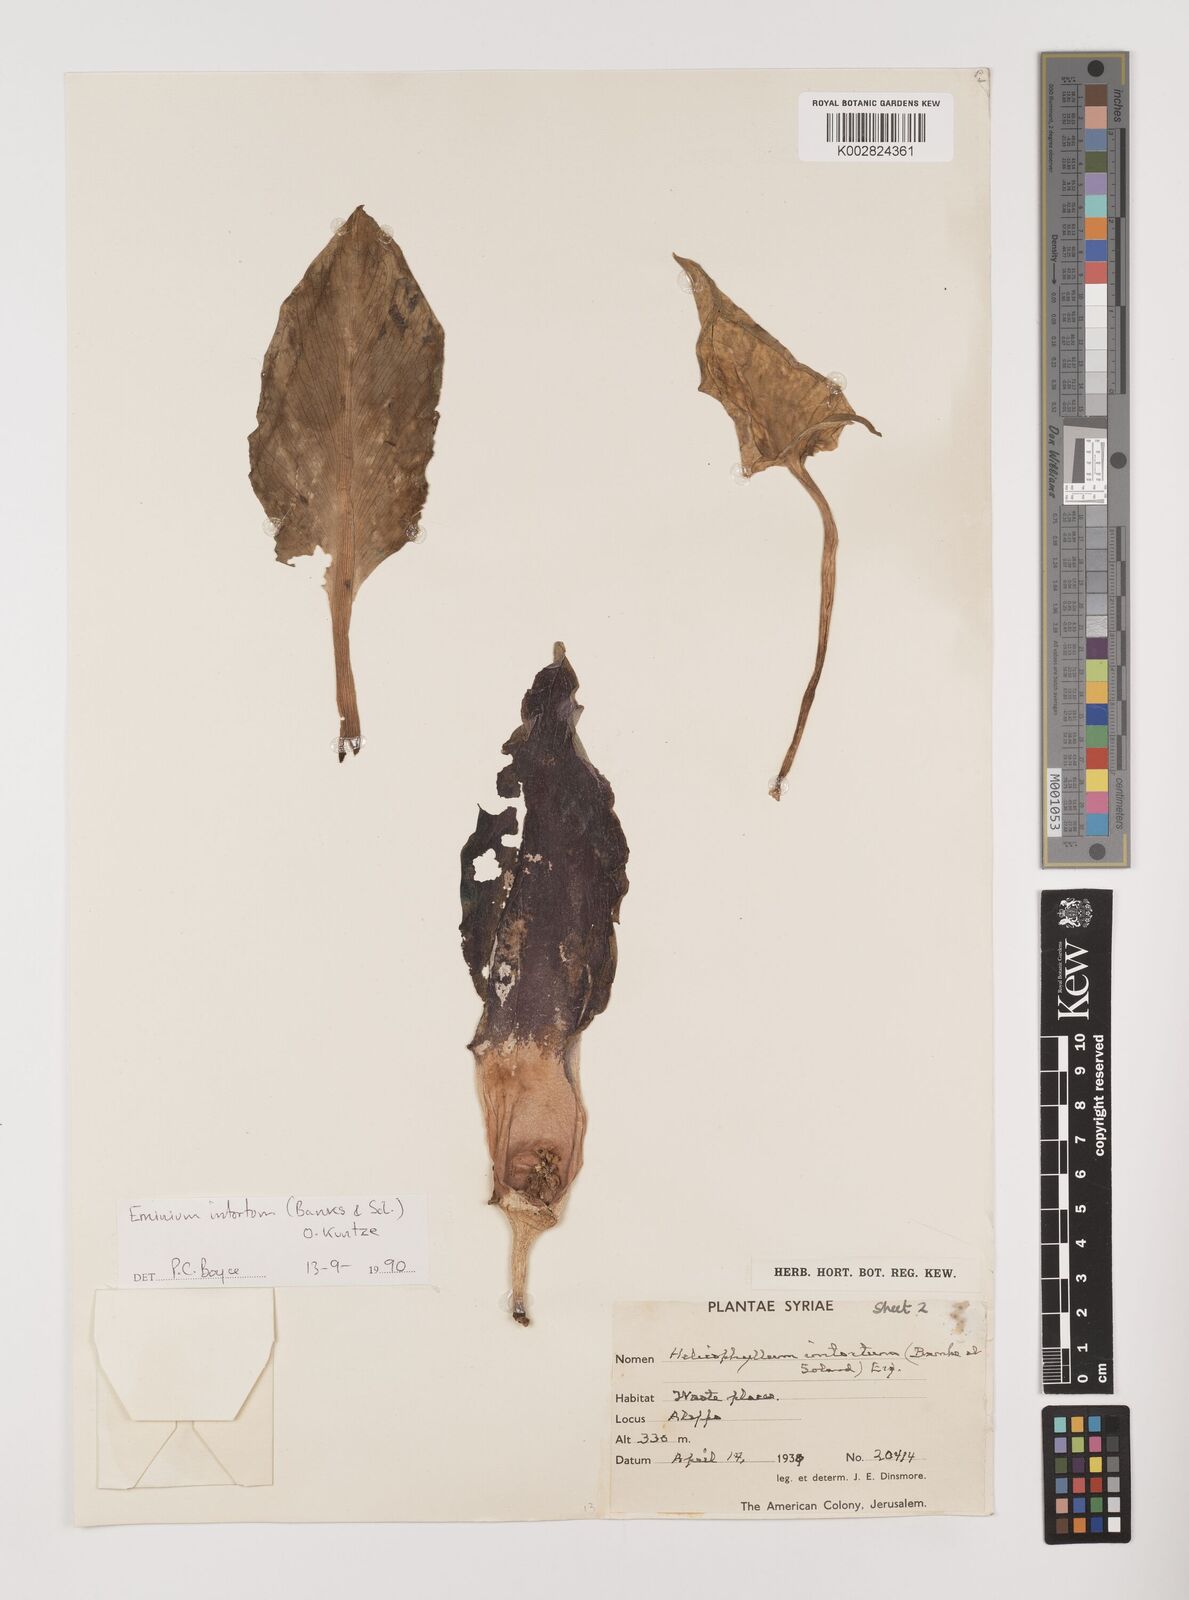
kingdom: Plantae
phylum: Tracheophyta
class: Liliopsida
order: Alismatales
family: Araceae
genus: Eminium
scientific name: Eminium intortum
